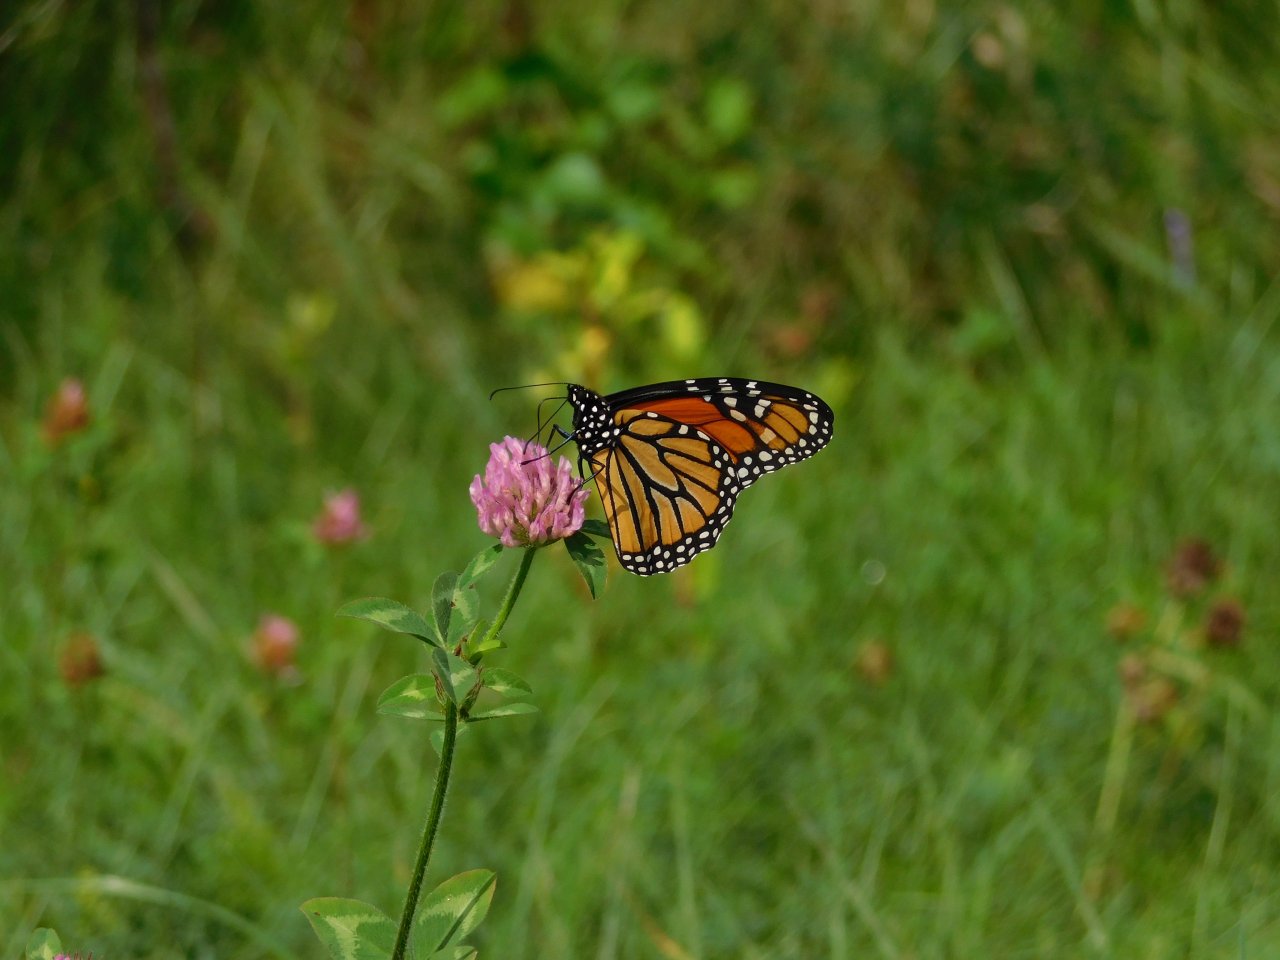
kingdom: Animalia
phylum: Arthropoda
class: Insecta
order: Lepidoptera
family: Nymphalidae
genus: Danaus
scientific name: Danaus plexippus
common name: Monarch
